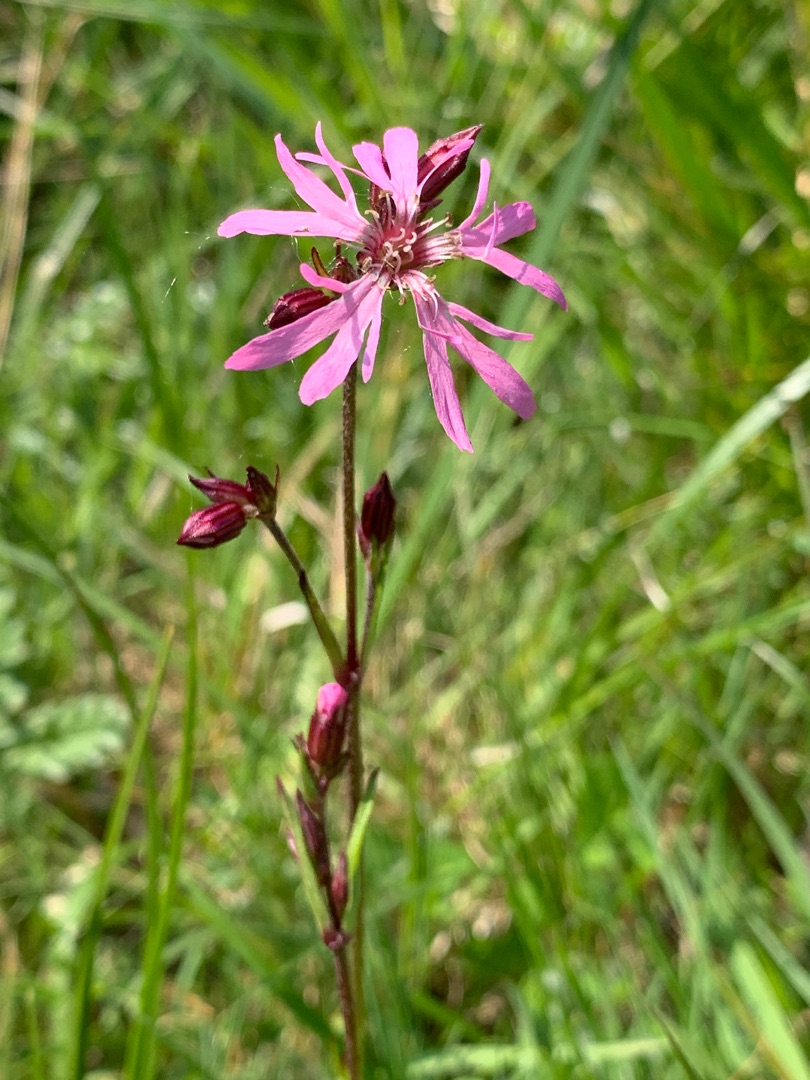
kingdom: Plantae
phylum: Tracheophyta
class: Magnoliopsida
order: Caryophyllales
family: Caryophyllaceae
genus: Silene
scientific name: Silene flos-cuculi
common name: Trævlekrone
